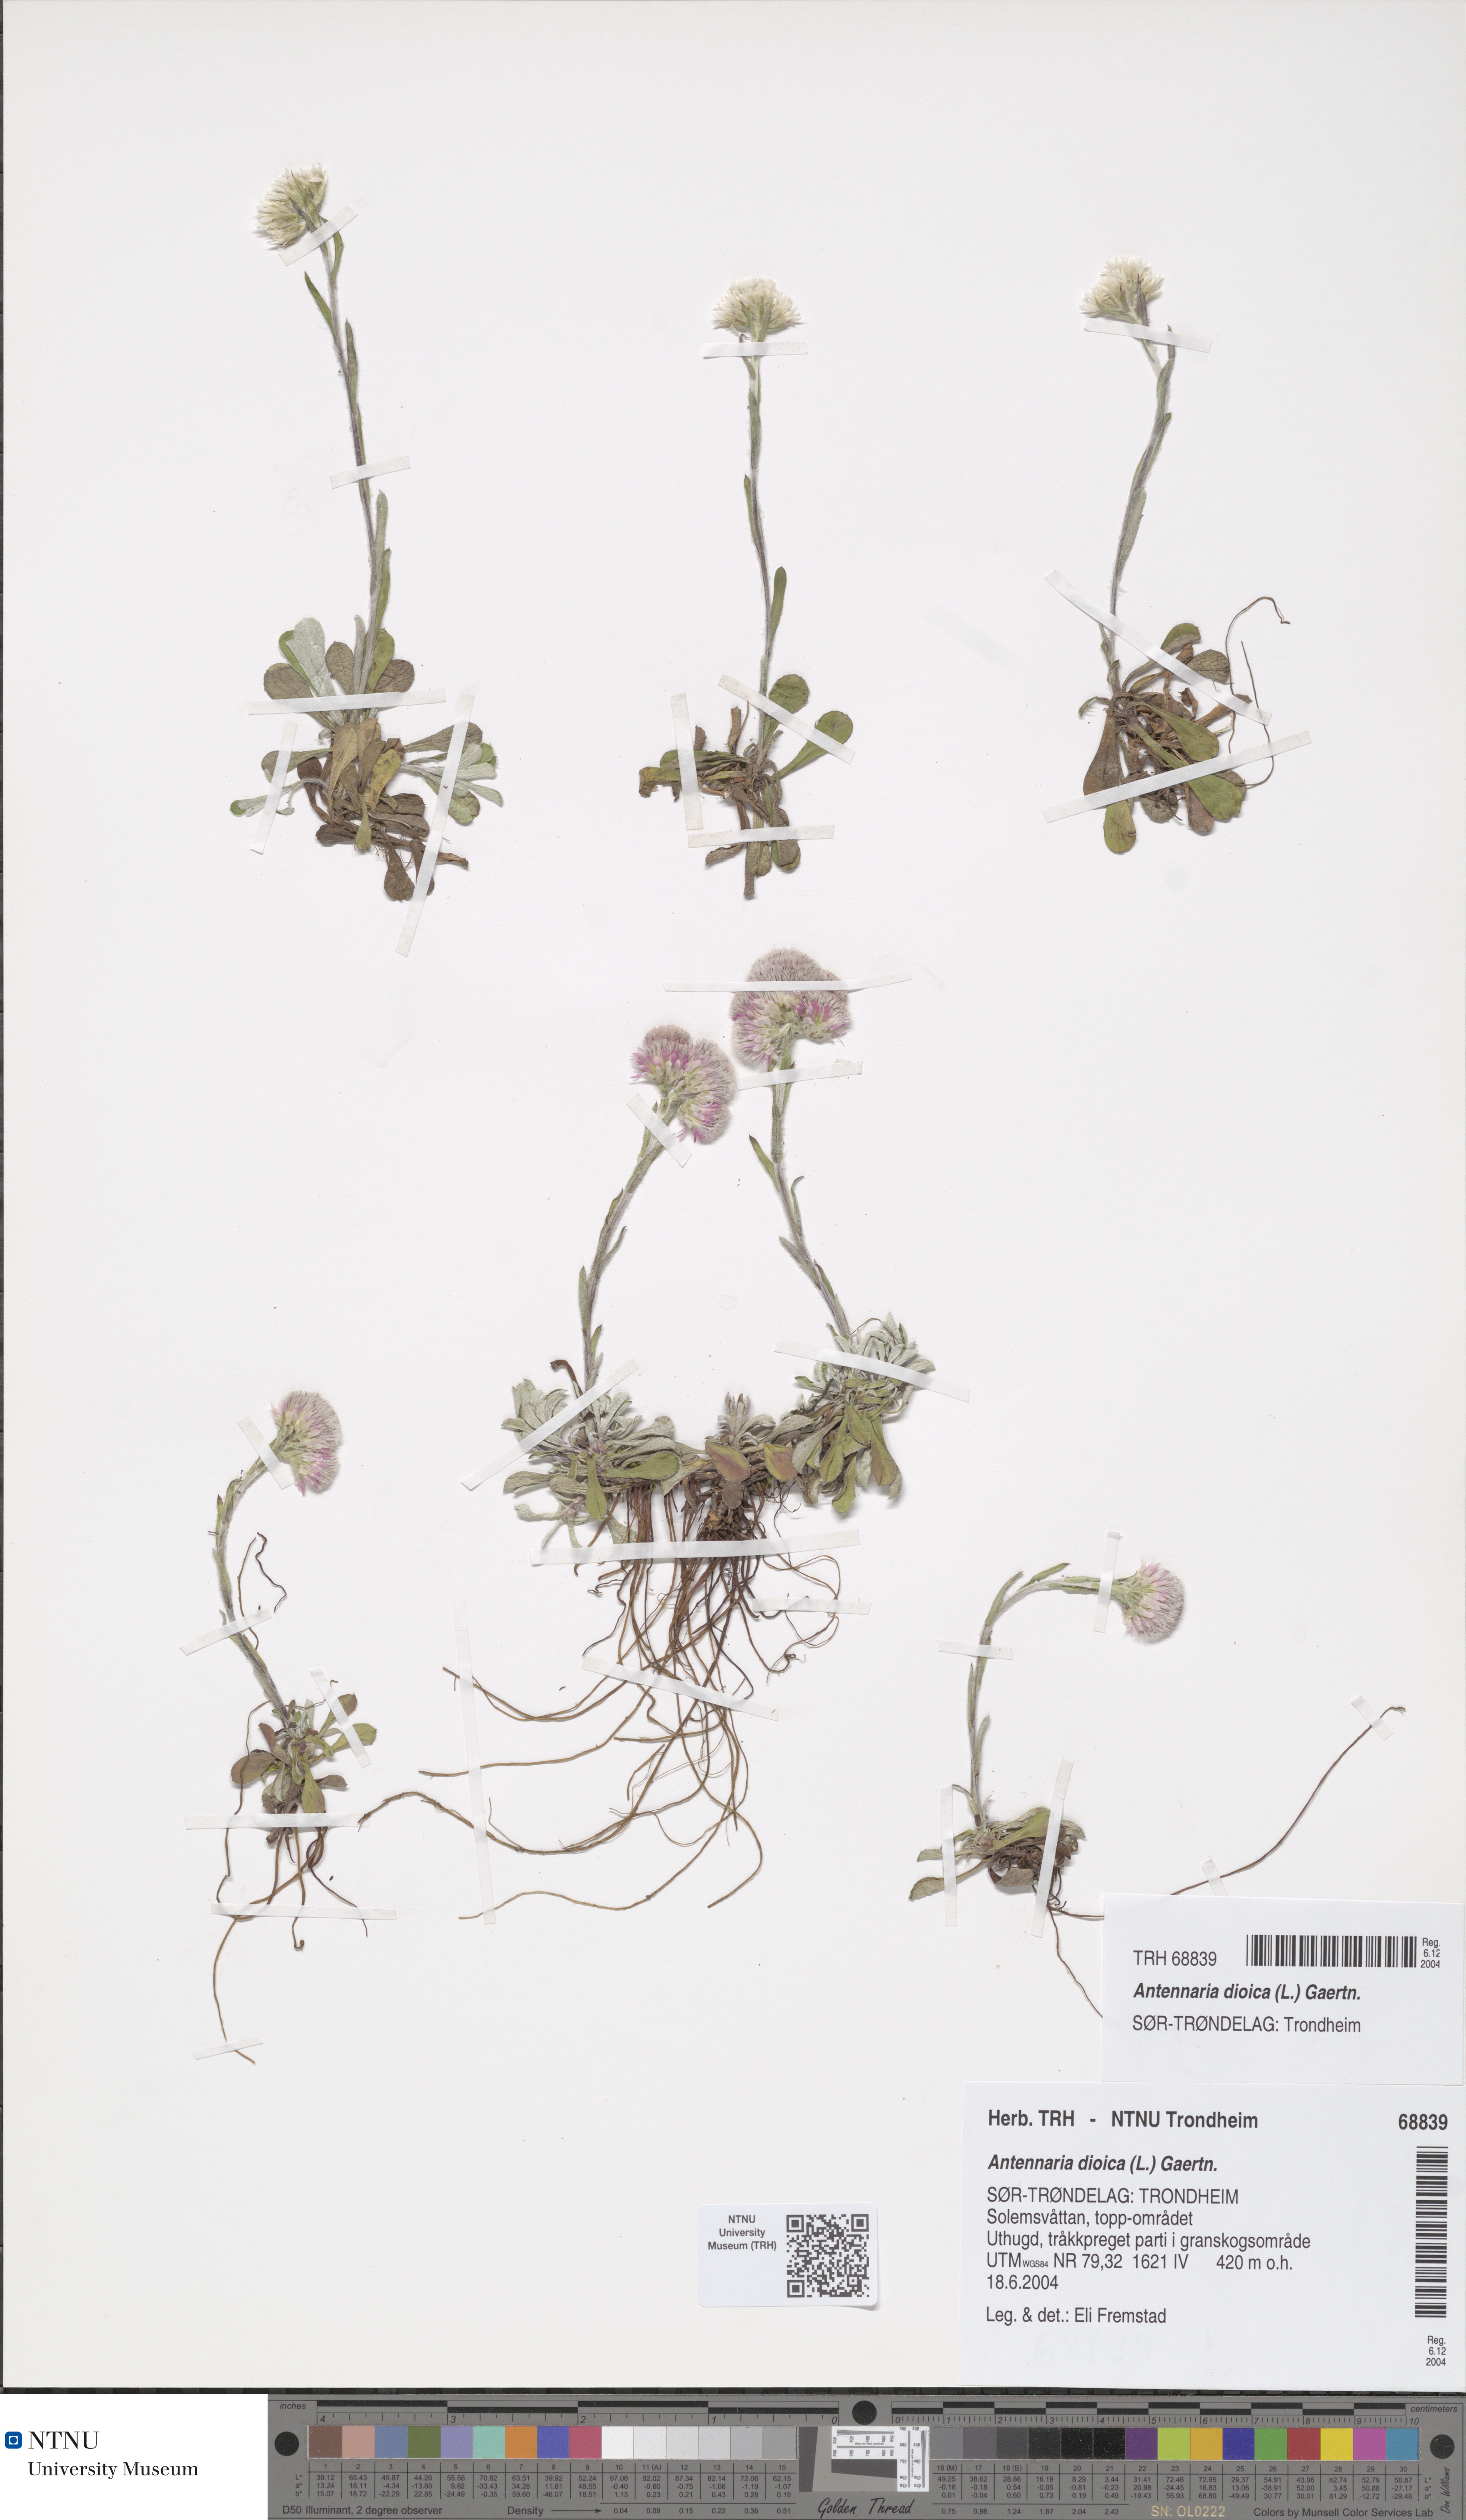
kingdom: Plantae
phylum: Tracheophyta
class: Magnoliopsida
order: Asterales
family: Asteraceae
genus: Antennaria
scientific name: Antennaria dioica
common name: Mountain everlasting
